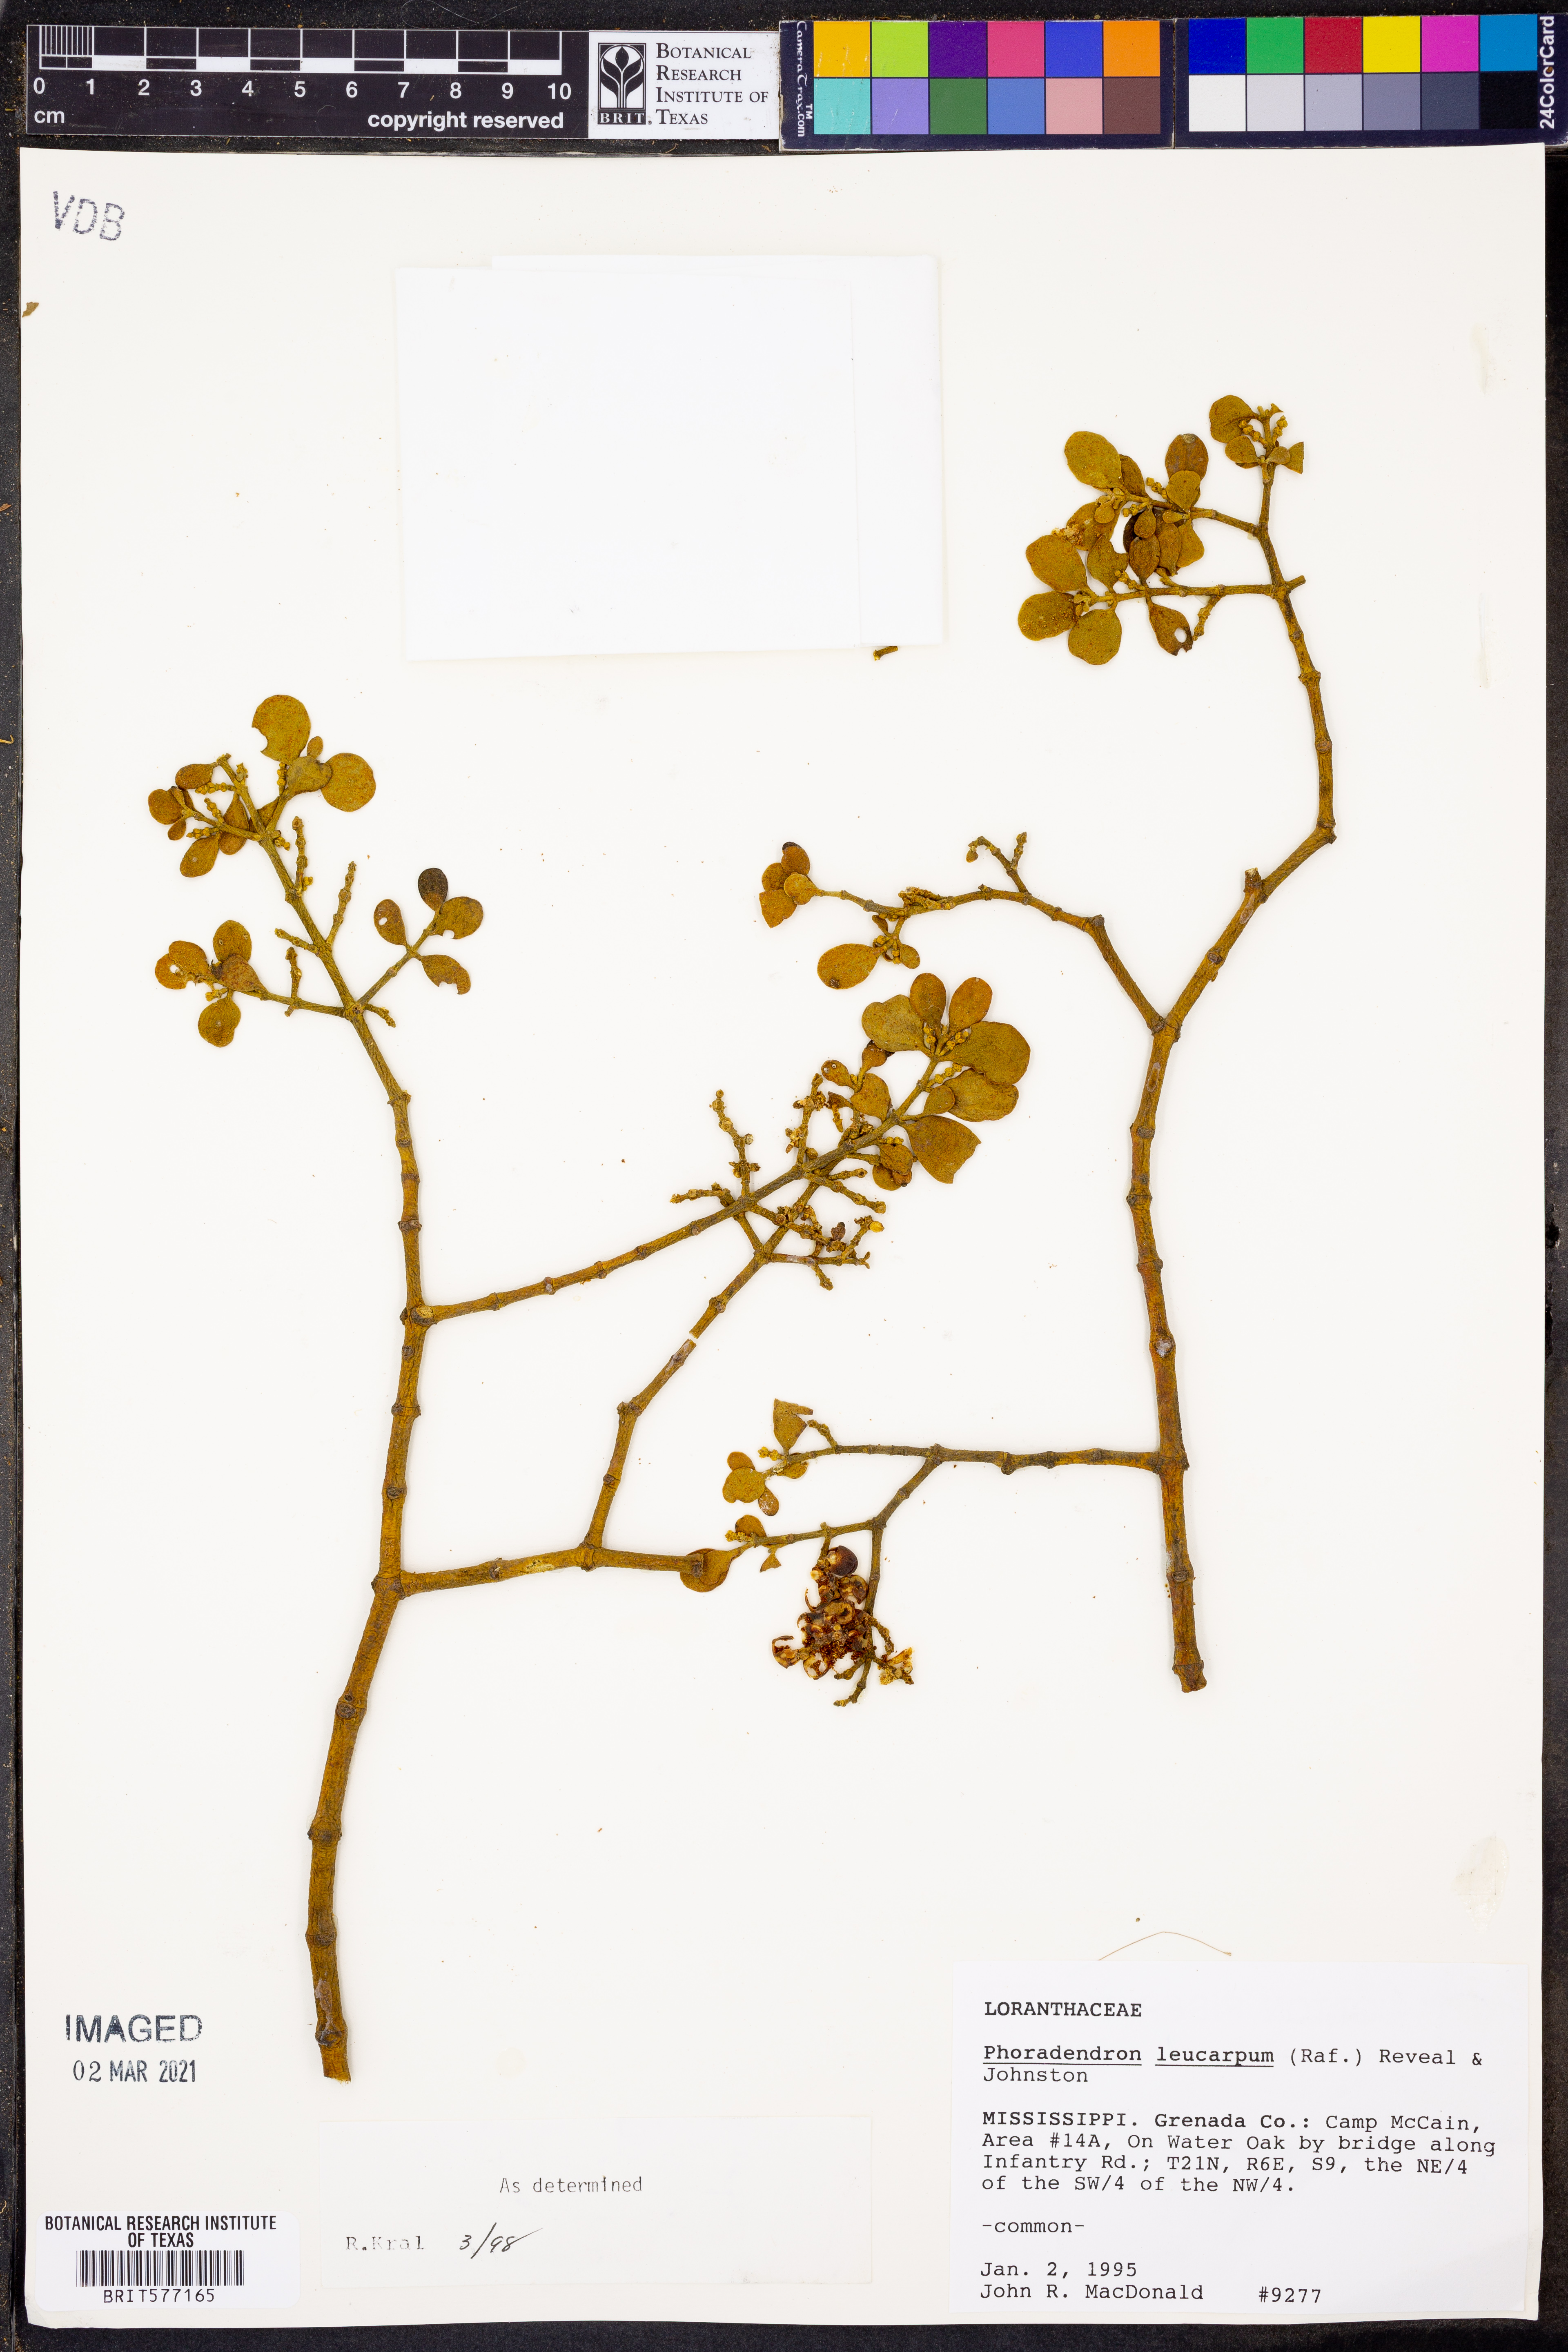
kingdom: Plantae
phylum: Tracheophyta
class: Magnoliopsida
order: Santalales
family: Viscaceae
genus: Phoradendron
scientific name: Phoradendron leucarpum
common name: Pacific mistletoe
